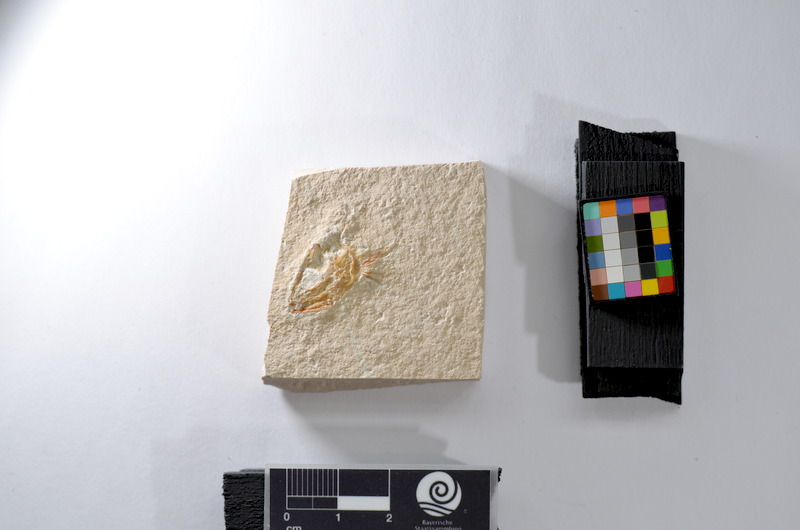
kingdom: Animalia
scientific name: Animalia
